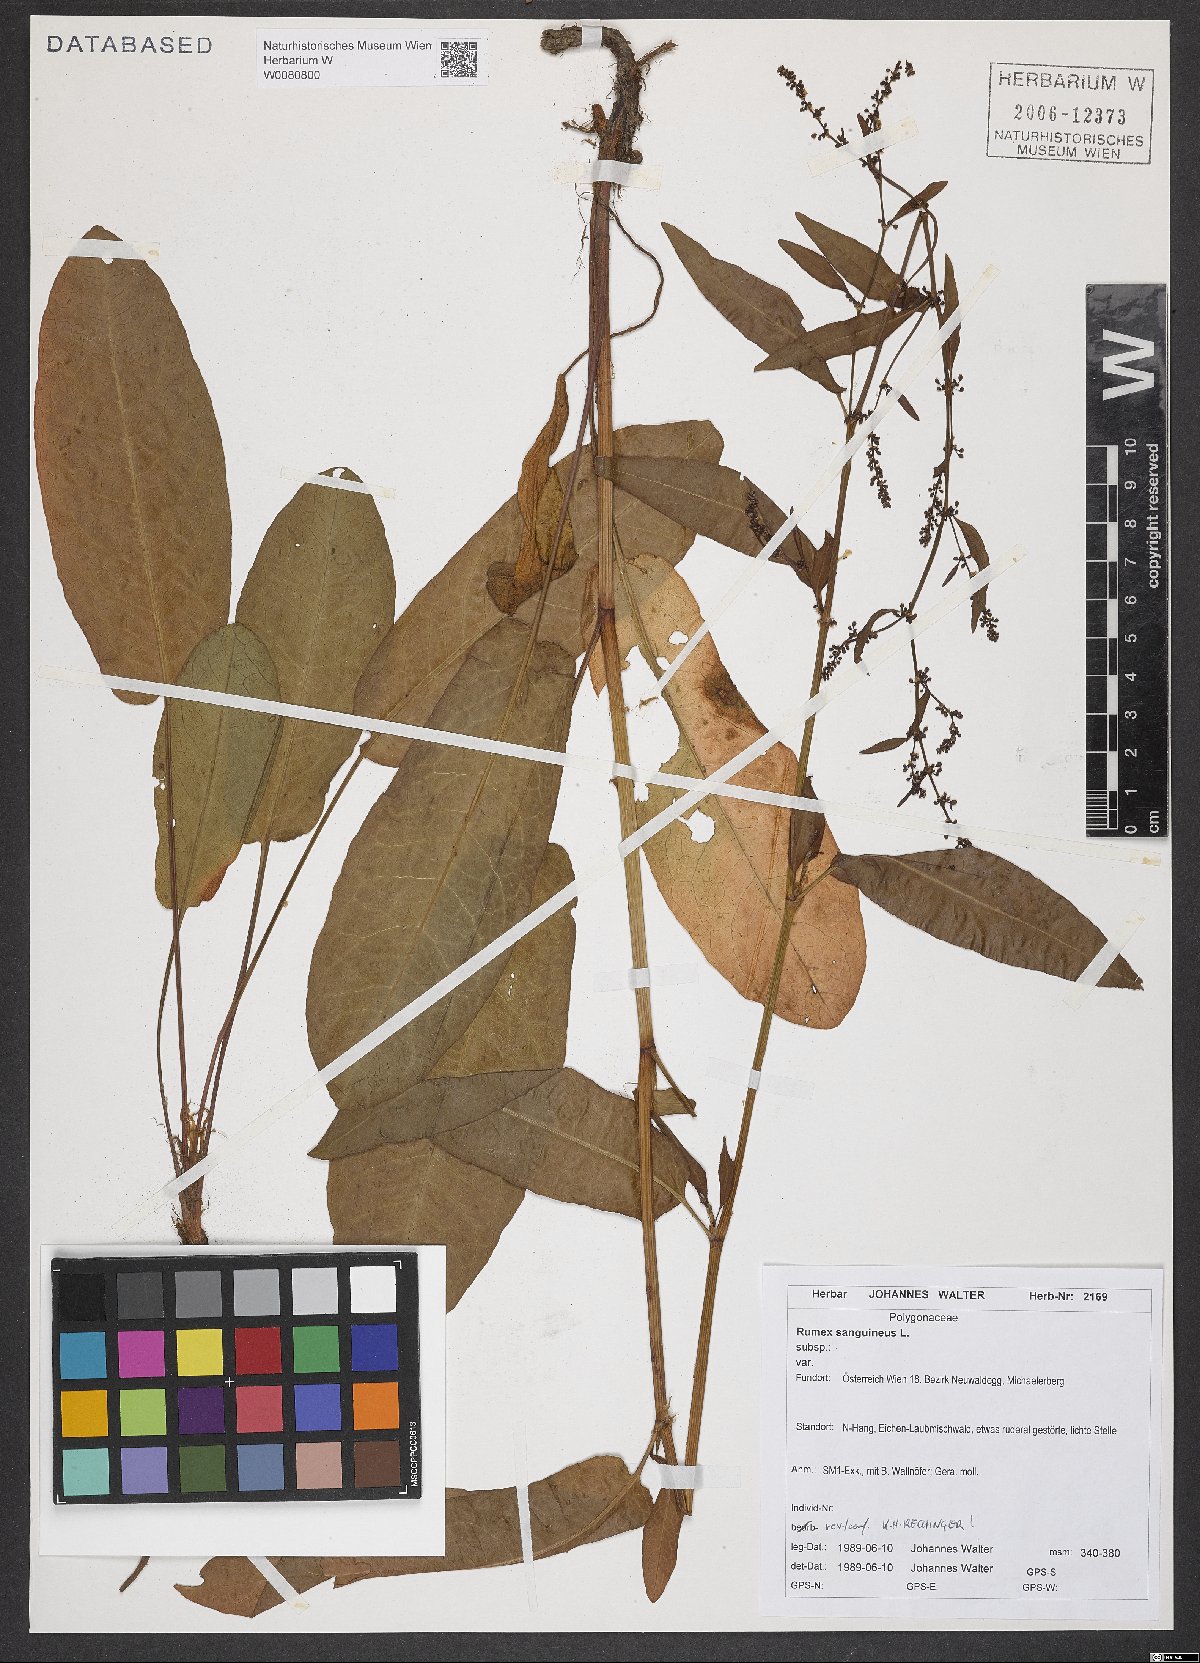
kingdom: Plantae
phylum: Tracheophyta
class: Magnoliopsida
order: Caryophyllales
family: Polygonaceae
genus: Rumex
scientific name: Rumex sanguineus
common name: Wood dock
